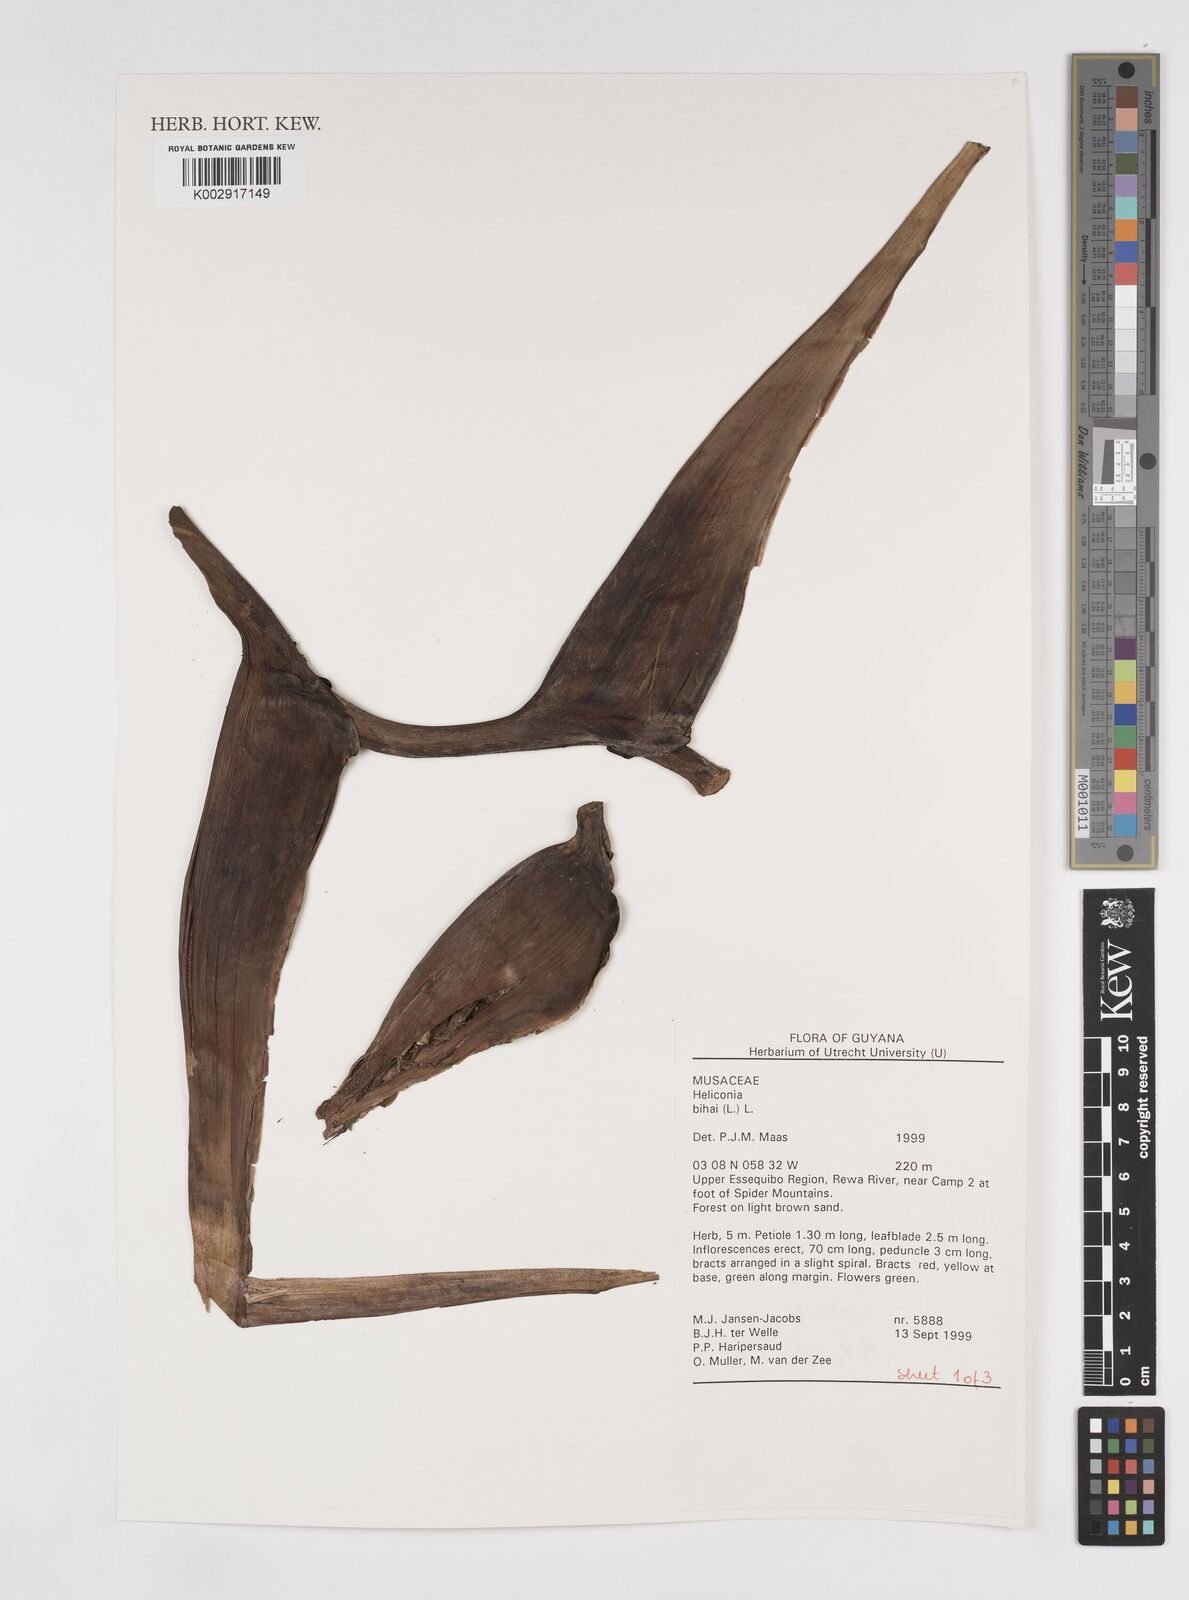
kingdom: Plantae
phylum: Tracheophyta
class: Liliopsida
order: Zingiberales
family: Heliconiaceae
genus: Heliconia
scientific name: Heliconia bihai
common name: Macaw flower
